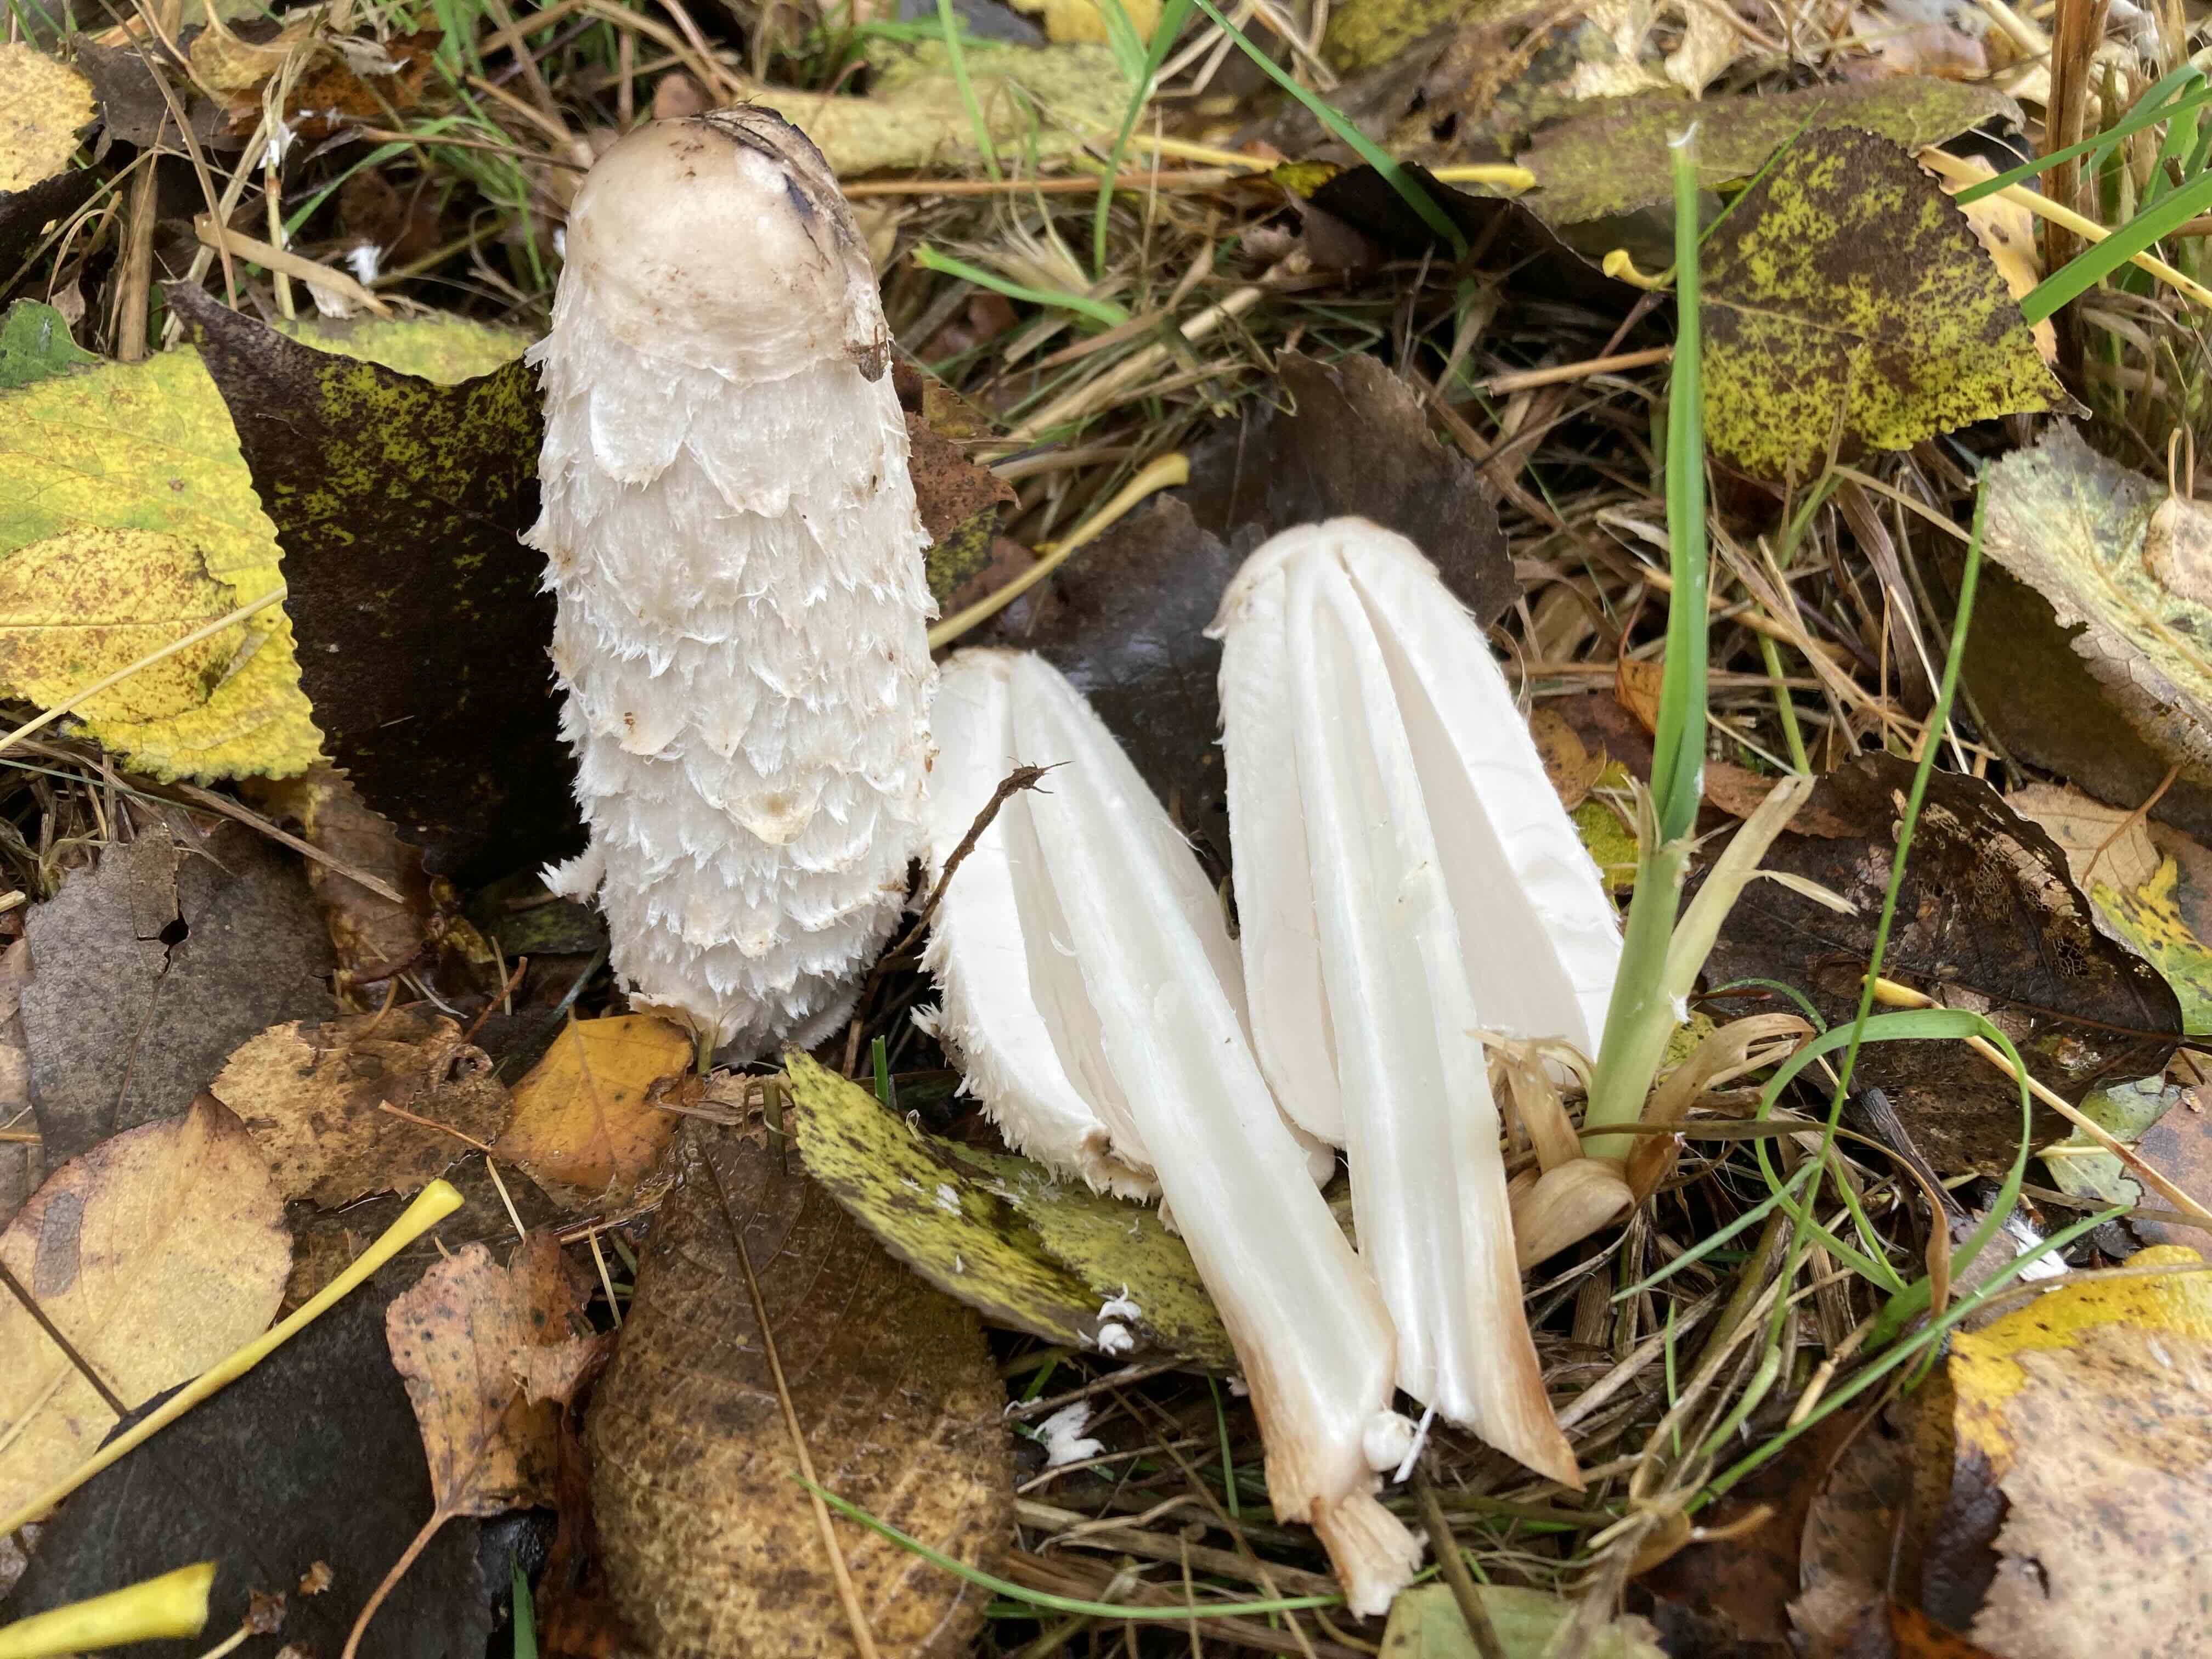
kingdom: Fungi
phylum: Basidiomycota
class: Agaricomycetes
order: Agaricales
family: Agaricaceae
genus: Coprinus
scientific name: Coprinus comatus
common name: stor parykhat
